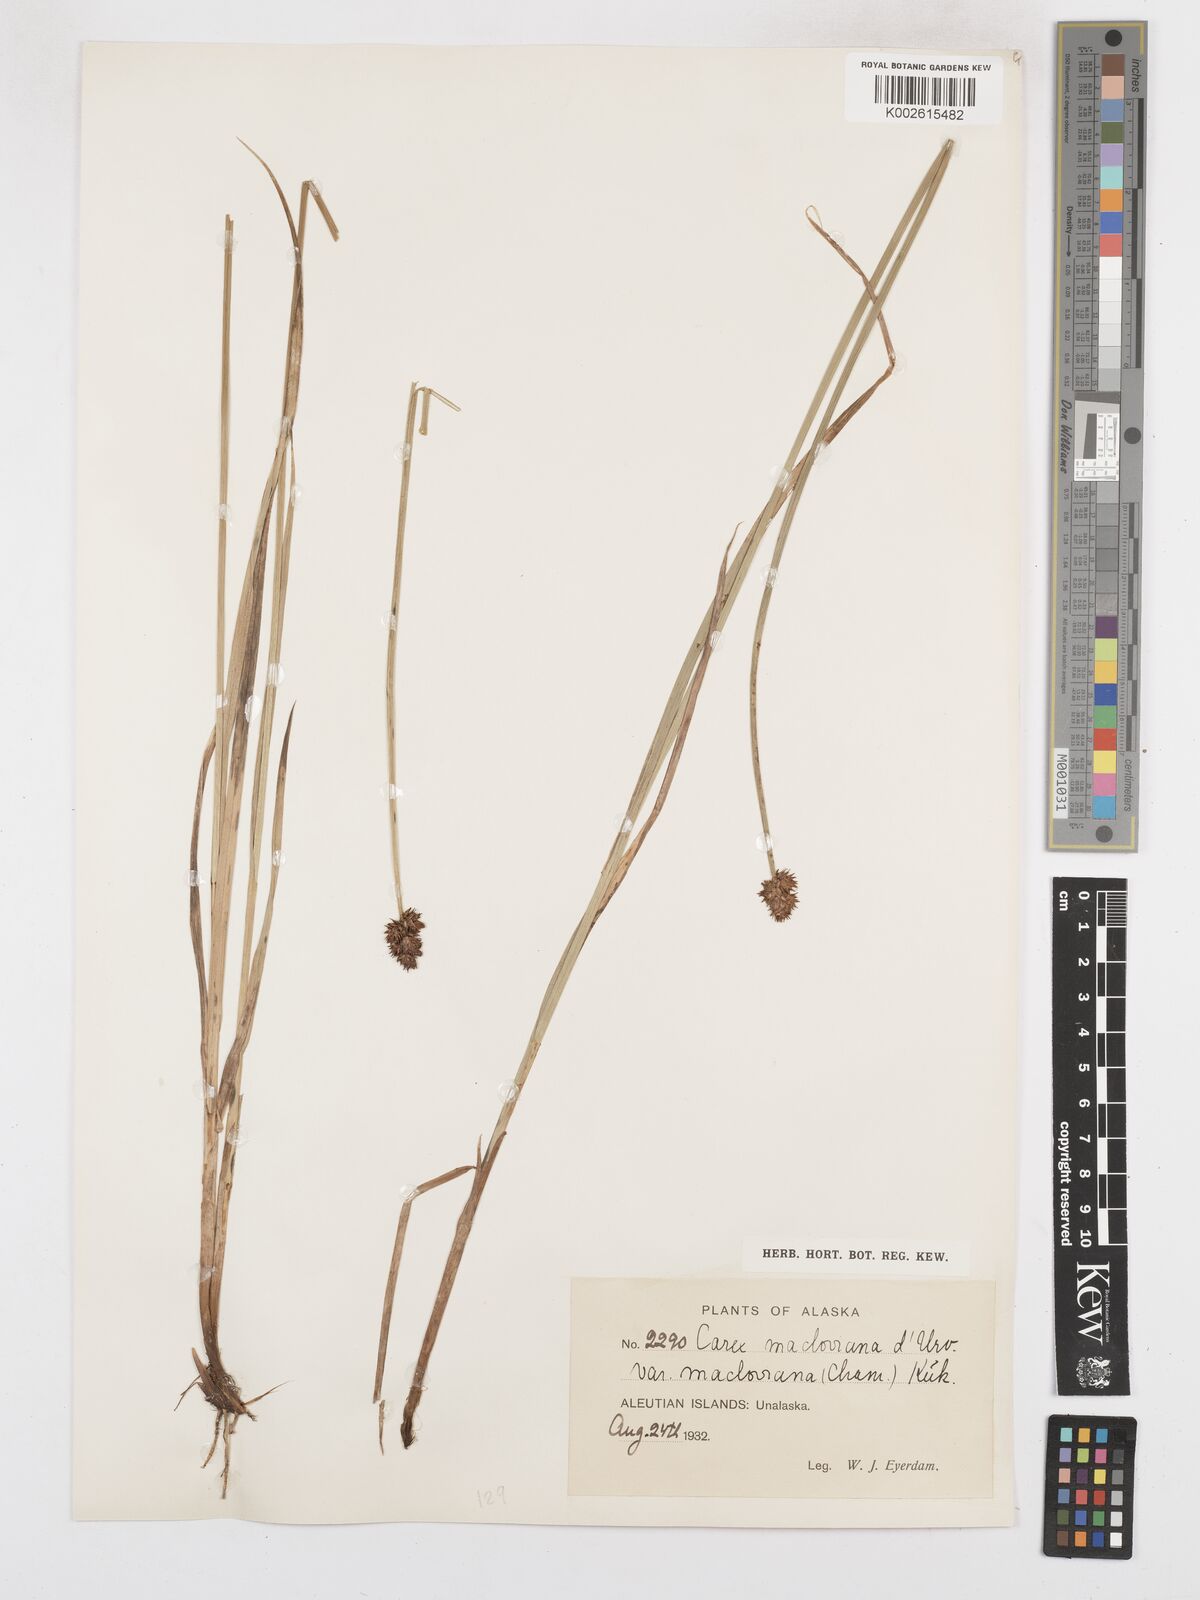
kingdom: Plantae
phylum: Tracheophyta
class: Liliopsida
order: Poales
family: Cyperaceae
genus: Carex
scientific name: Carex macloviana
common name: Falkland island sedge
